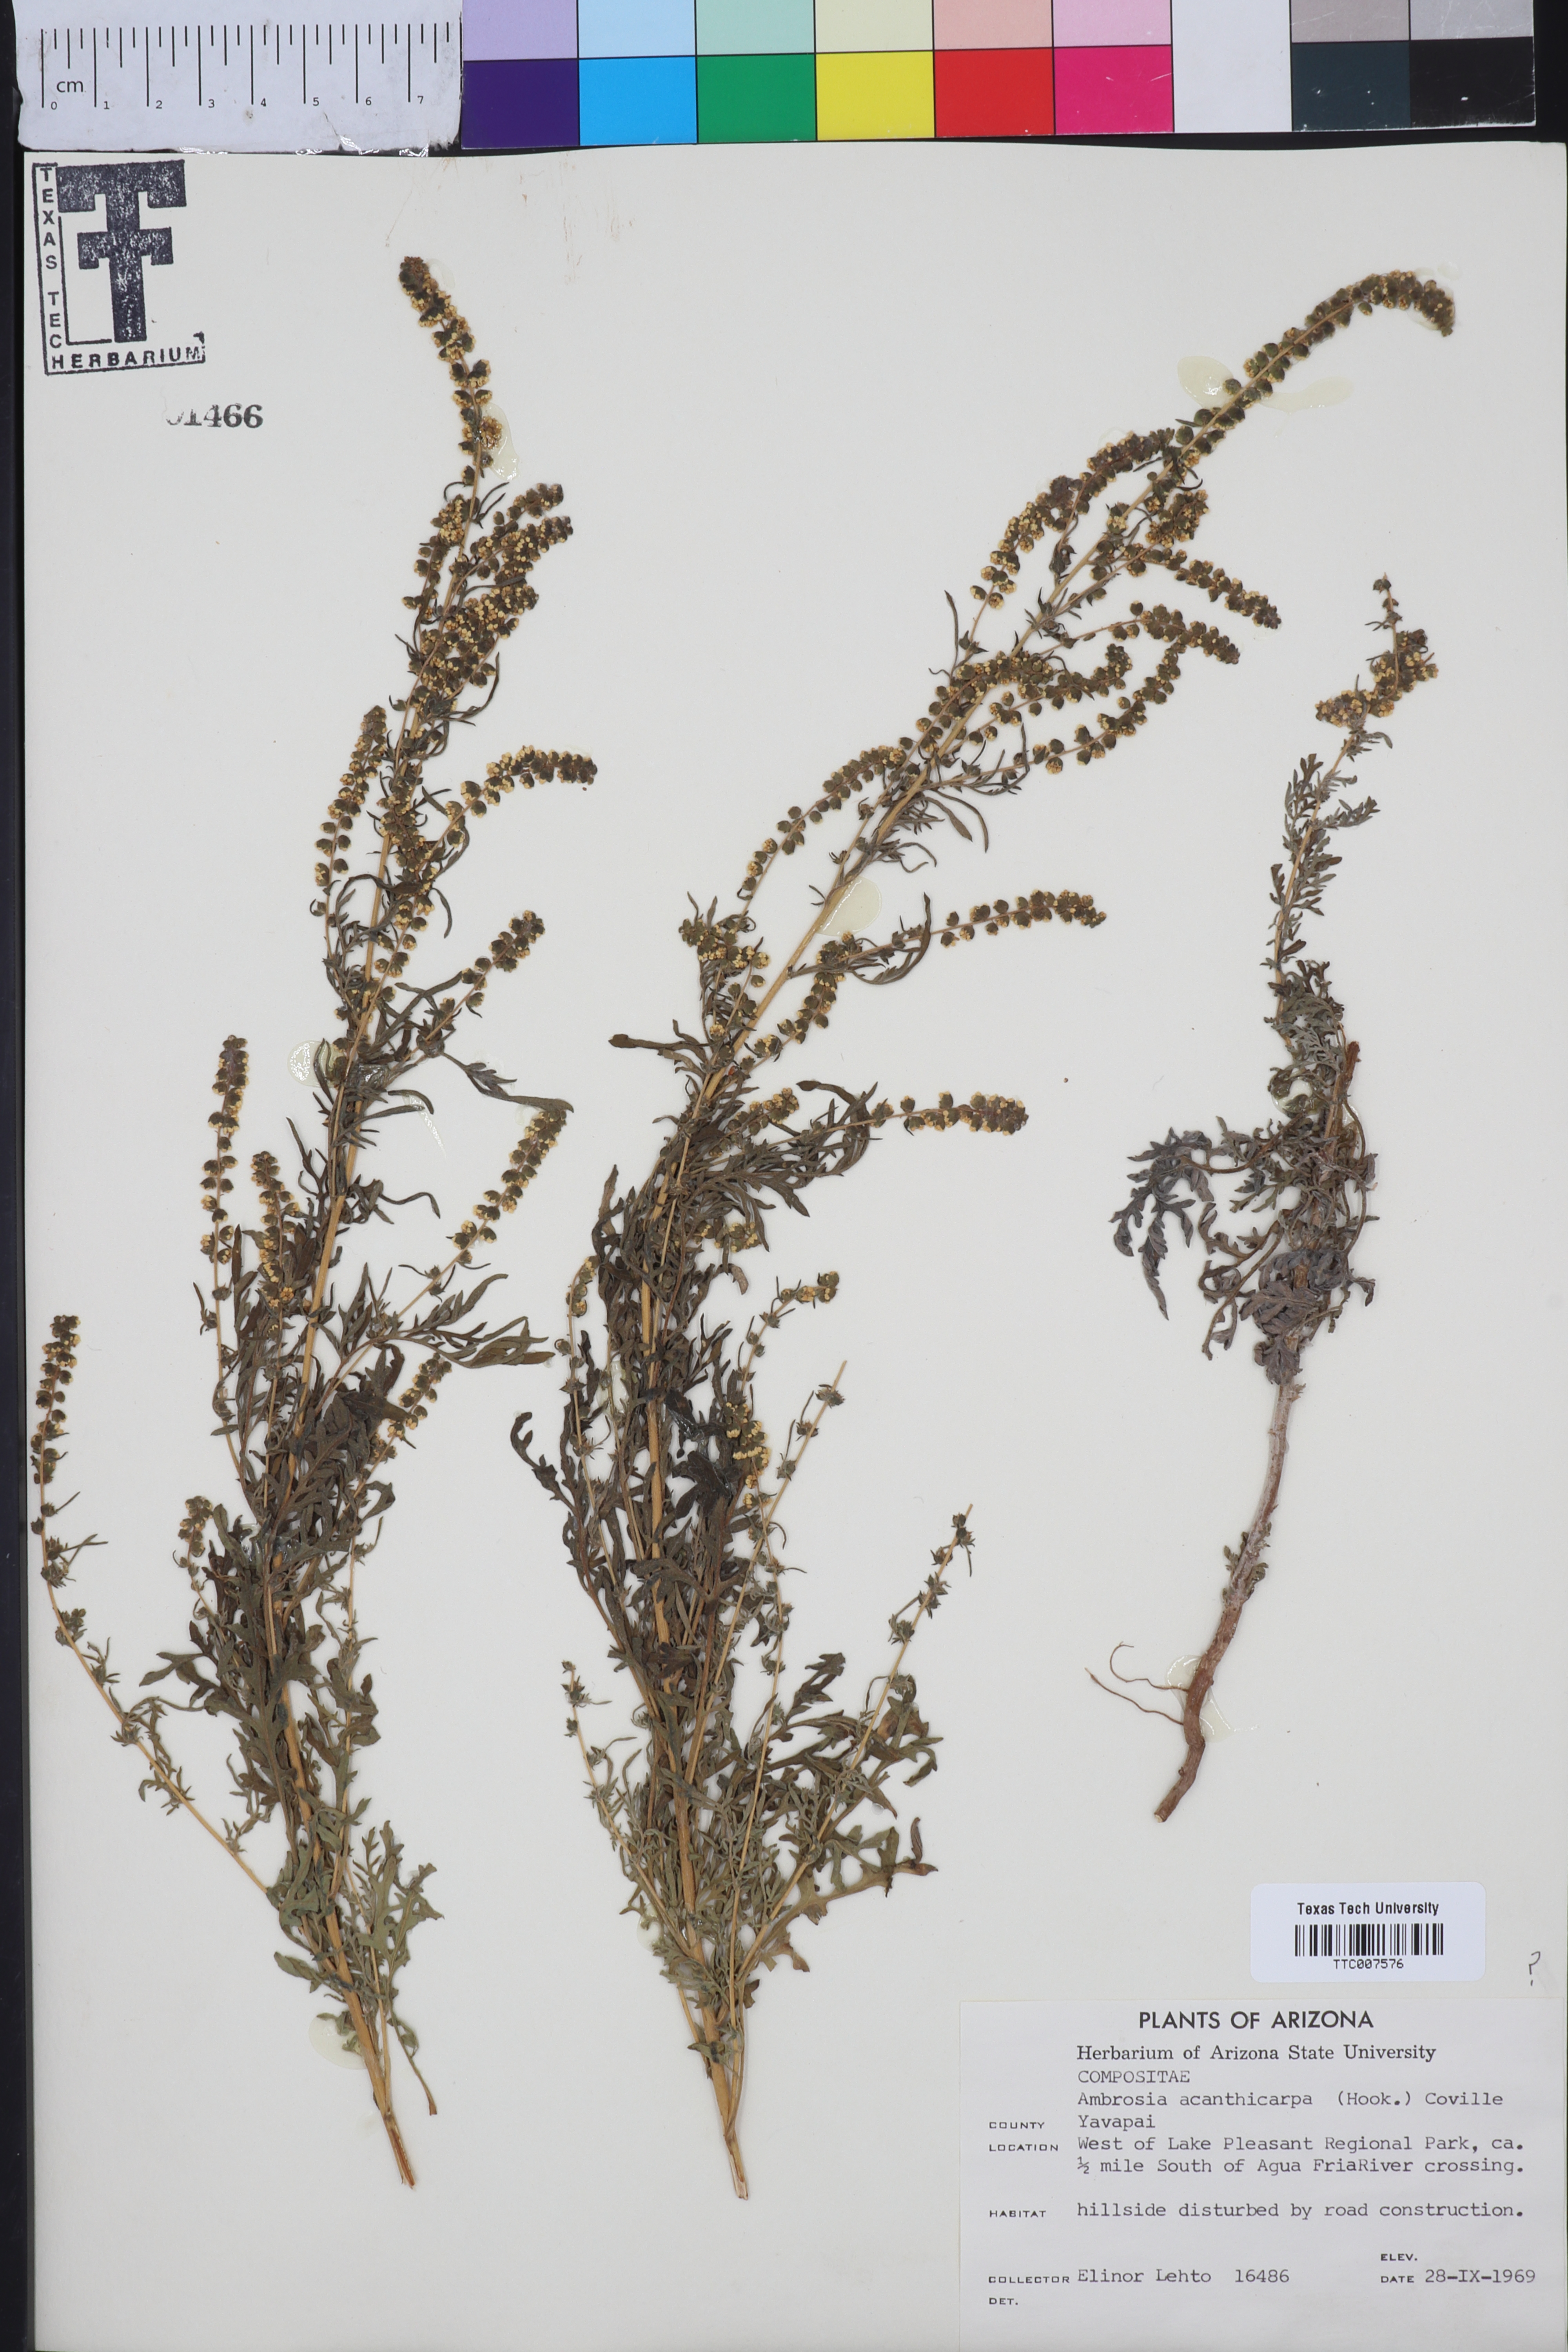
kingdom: Plantae
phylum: Tracheophyta
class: Magnoliopsida
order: Asterales
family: Asteraceae
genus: Ambrosia
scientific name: Ambrosia acanthicarpa
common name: Hooker's bur ragweed
